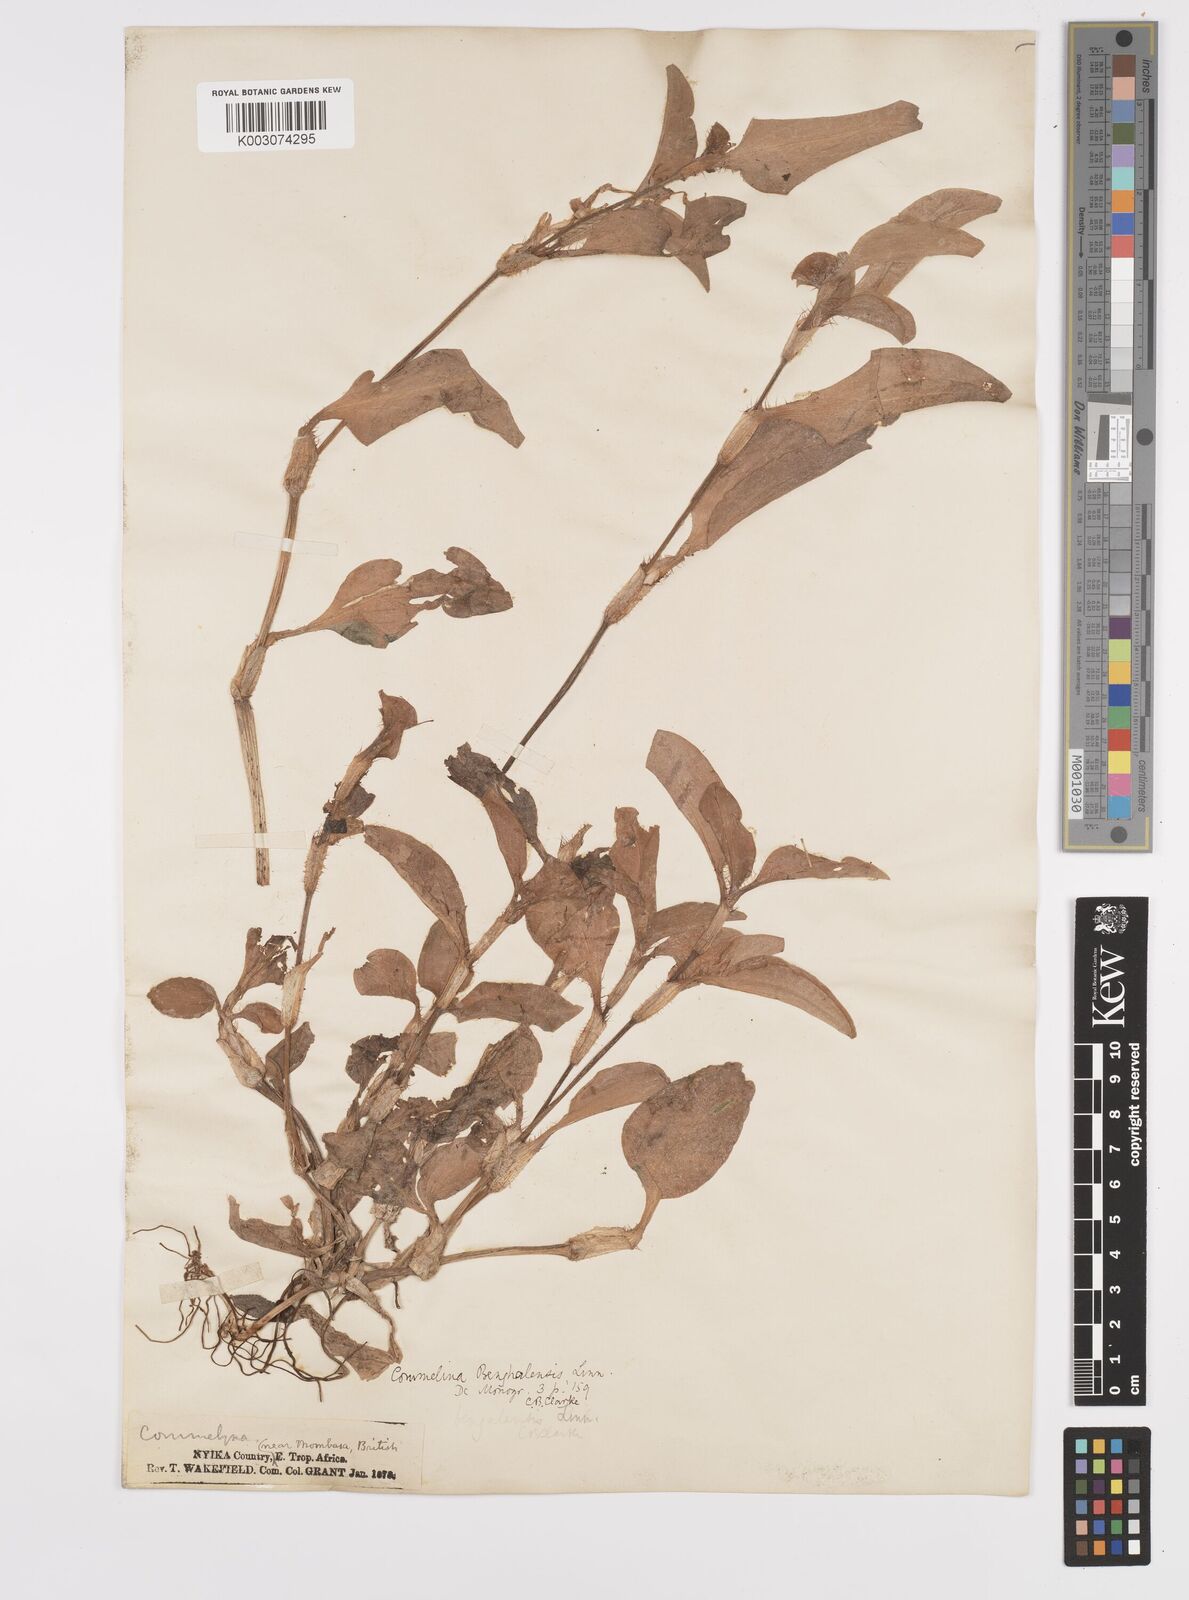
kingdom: Plantae
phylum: Tracheophyta
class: Liliopsida
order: Commelinales
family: Commelinaceae
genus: Commelina
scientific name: Commelina benghalensis
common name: Jio
